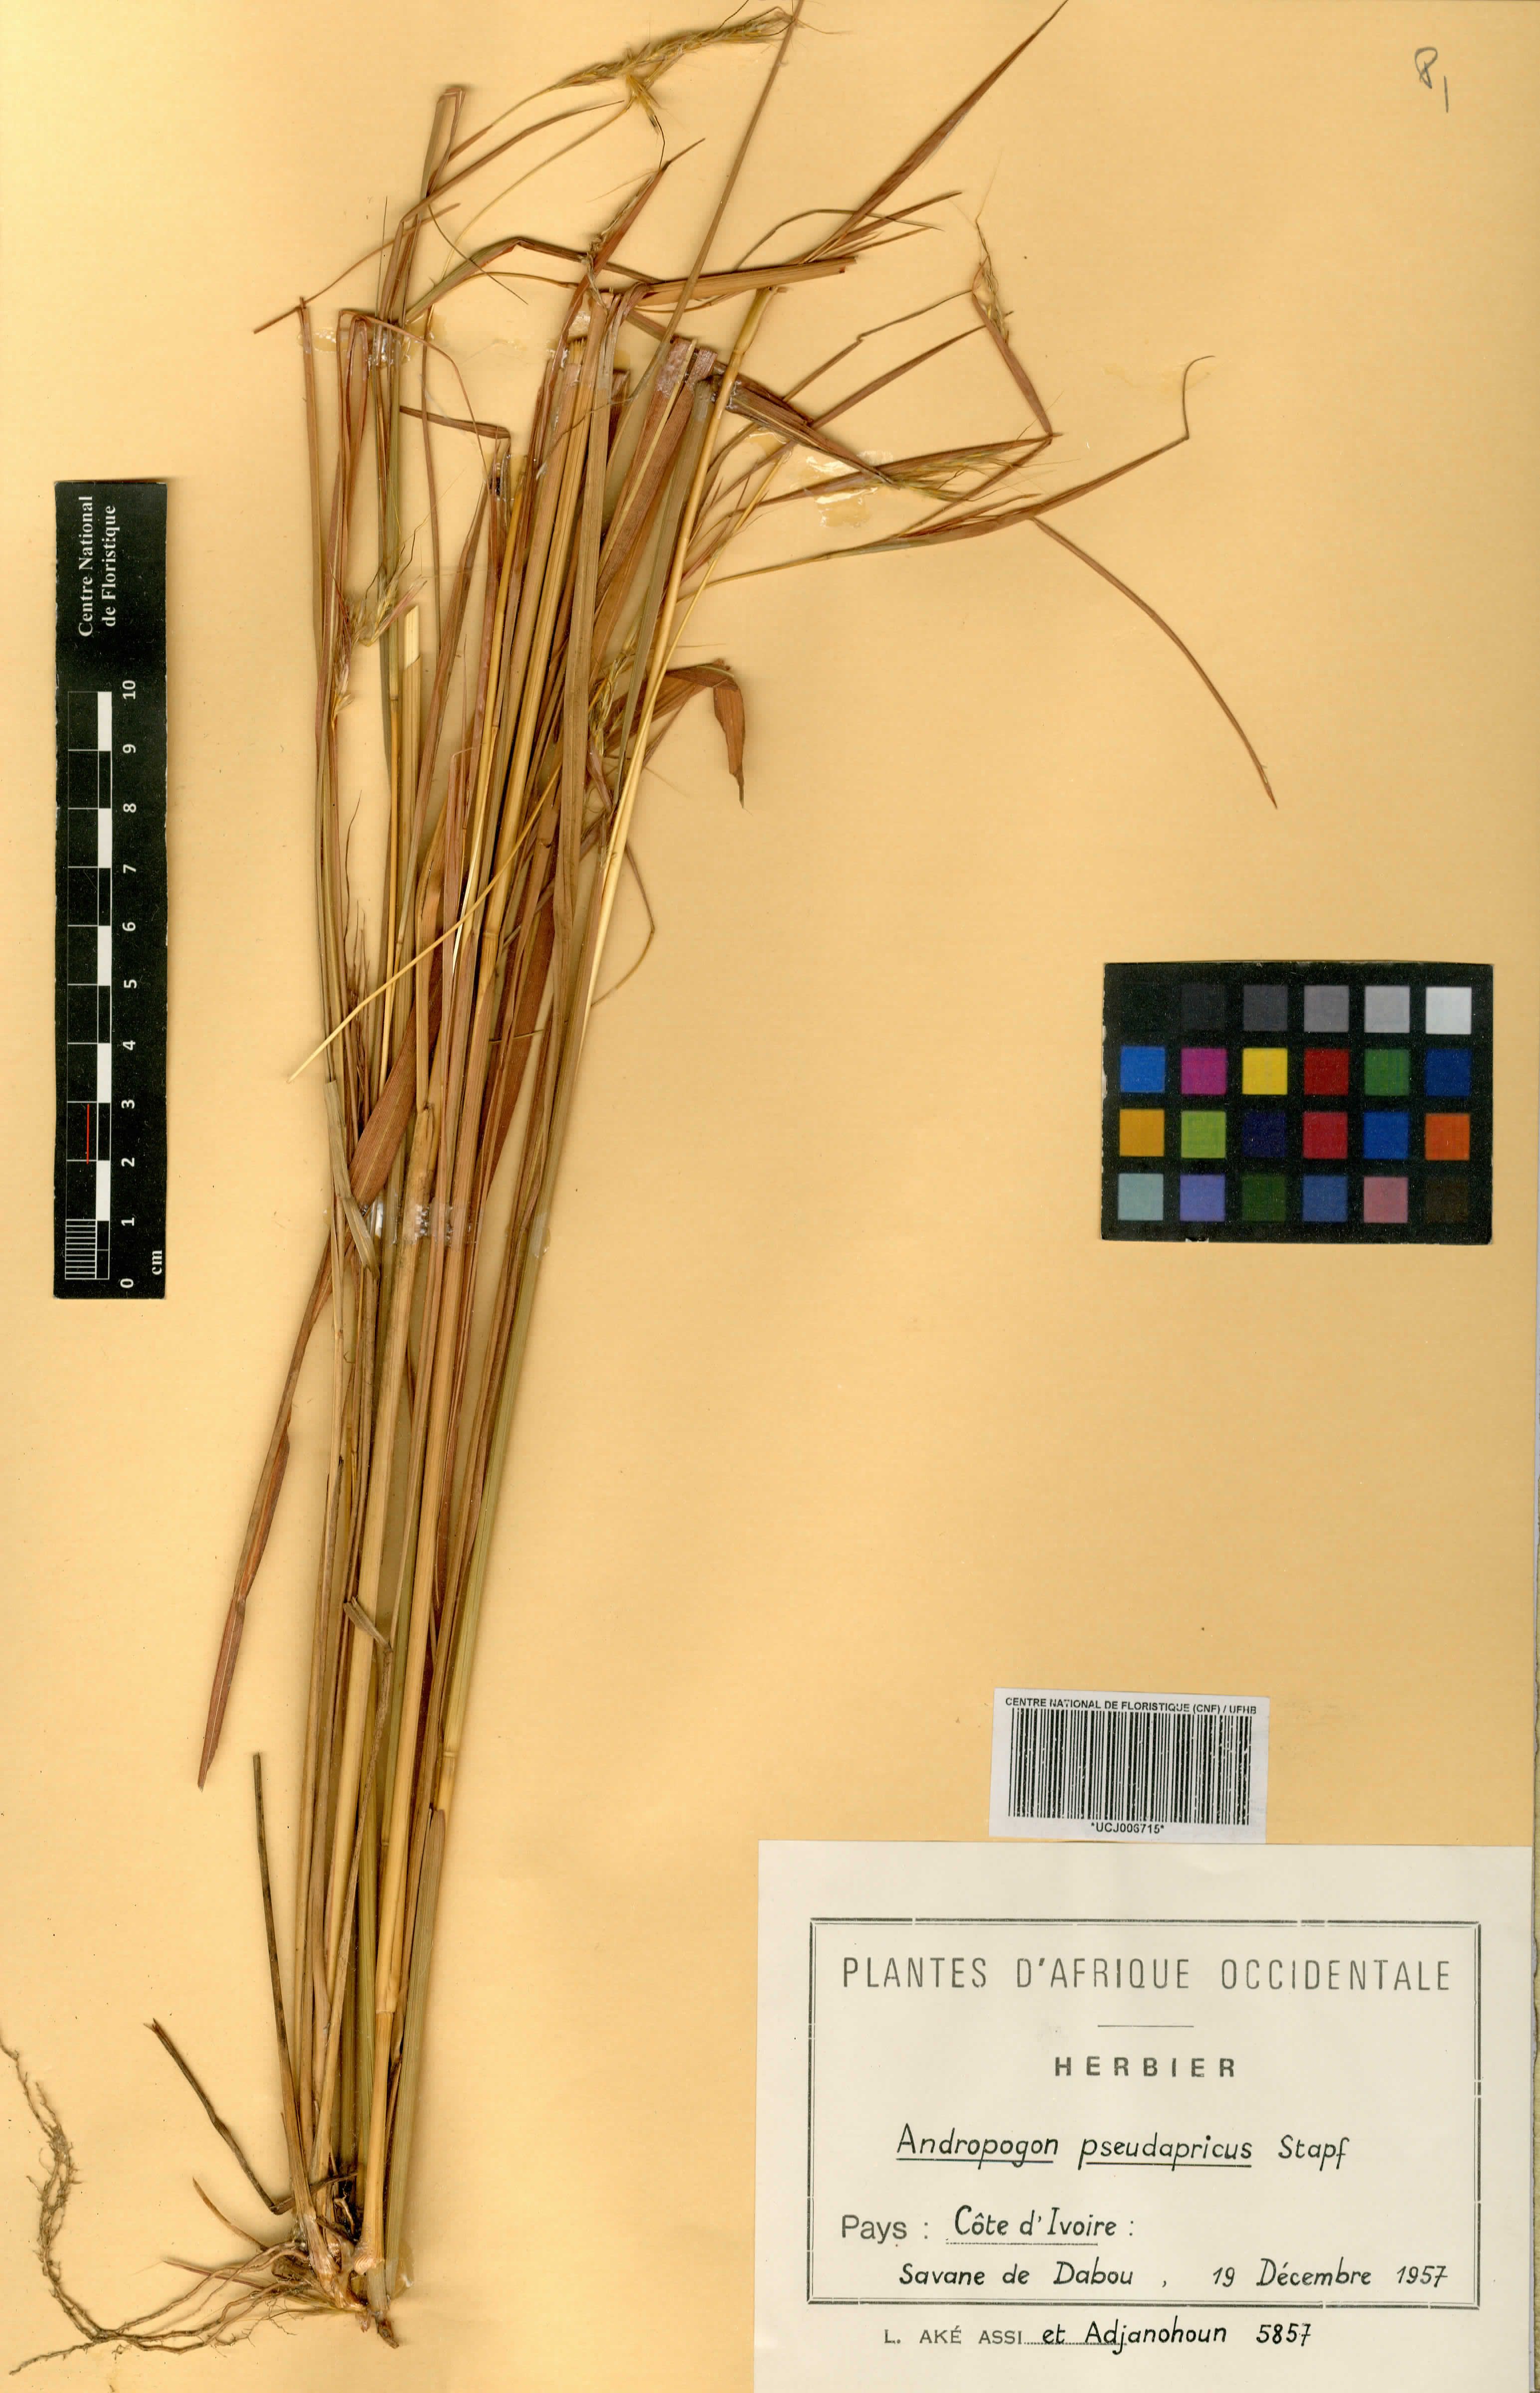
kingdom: Plantae
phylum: Tracheophyta
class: Liliopsida
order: Poales
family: Poaceae
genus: Andropogon
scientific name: Andropogon pseudapricus
